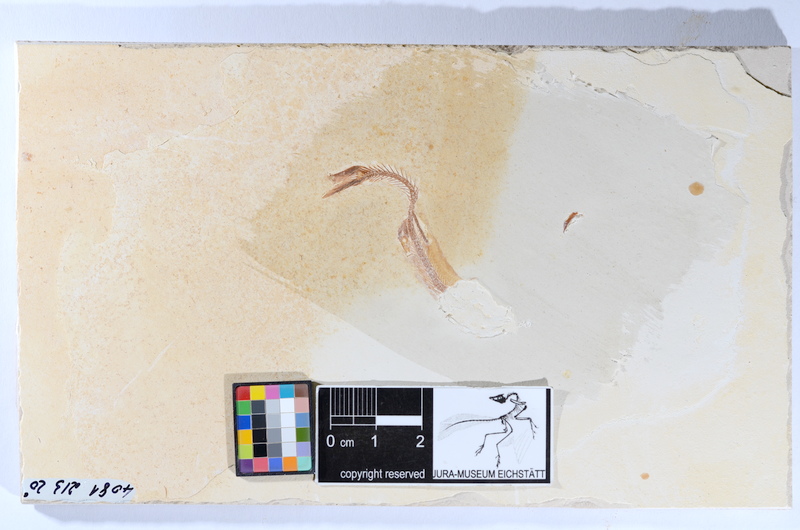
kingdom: Animalia
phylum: Chordata
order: Salmoniformes
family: Orthogonikleithridae
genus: Leptolepides
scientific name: Leptolepides
